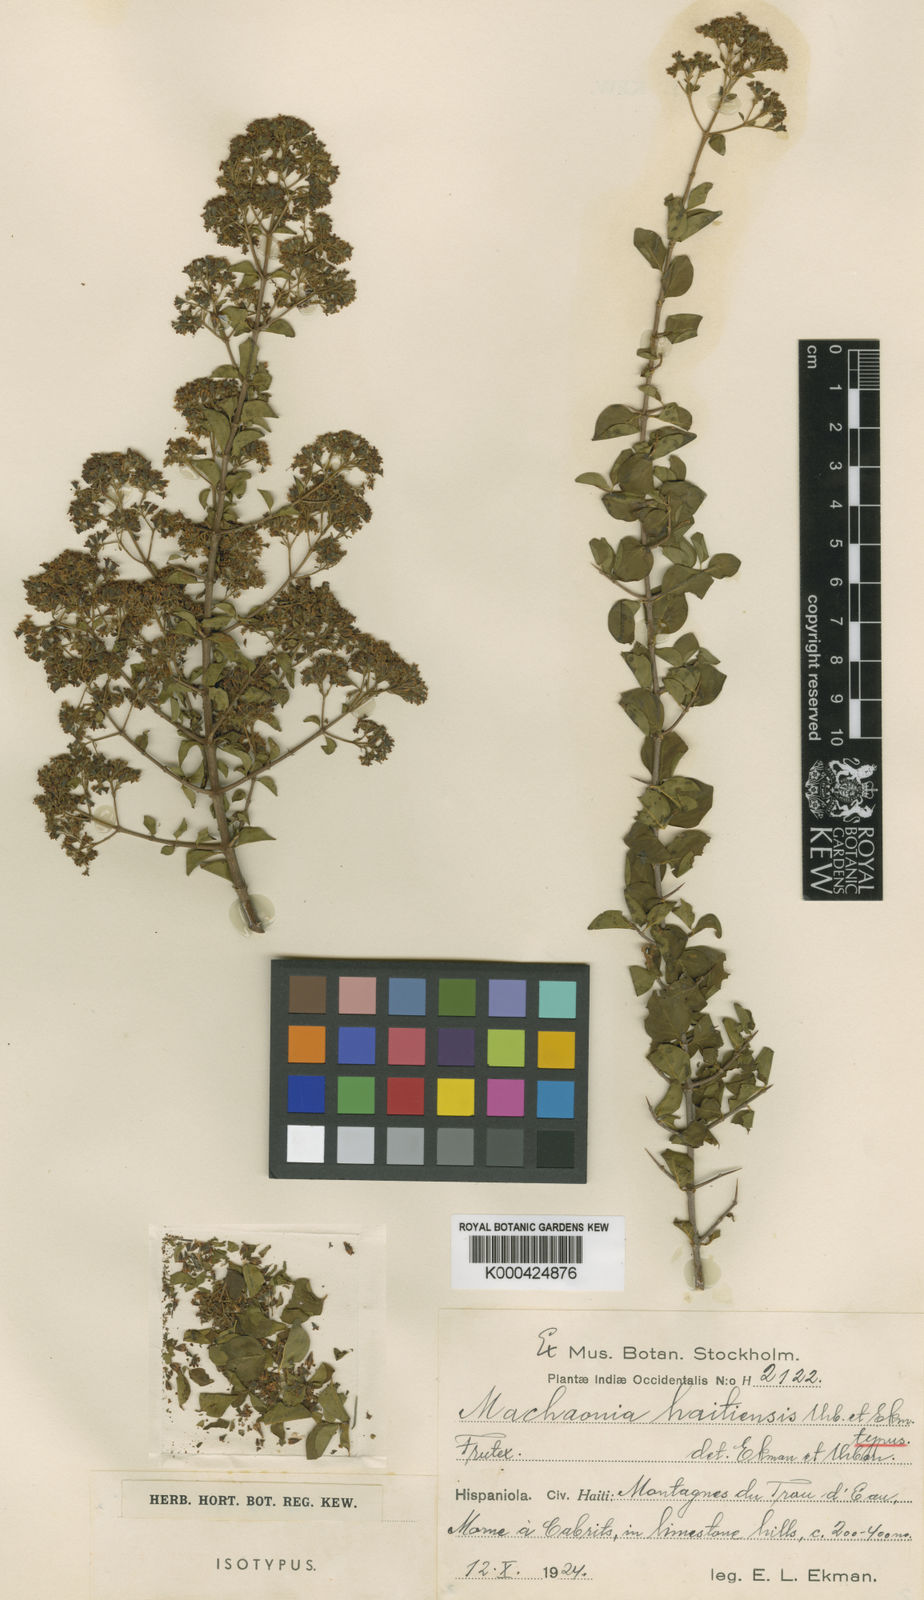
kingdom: Plantae
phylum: Tracheophyta
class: Magnoliopsida
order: Gentianales
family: Rubiaceae
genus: Machaonia
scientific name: Machaonia haitiensis
